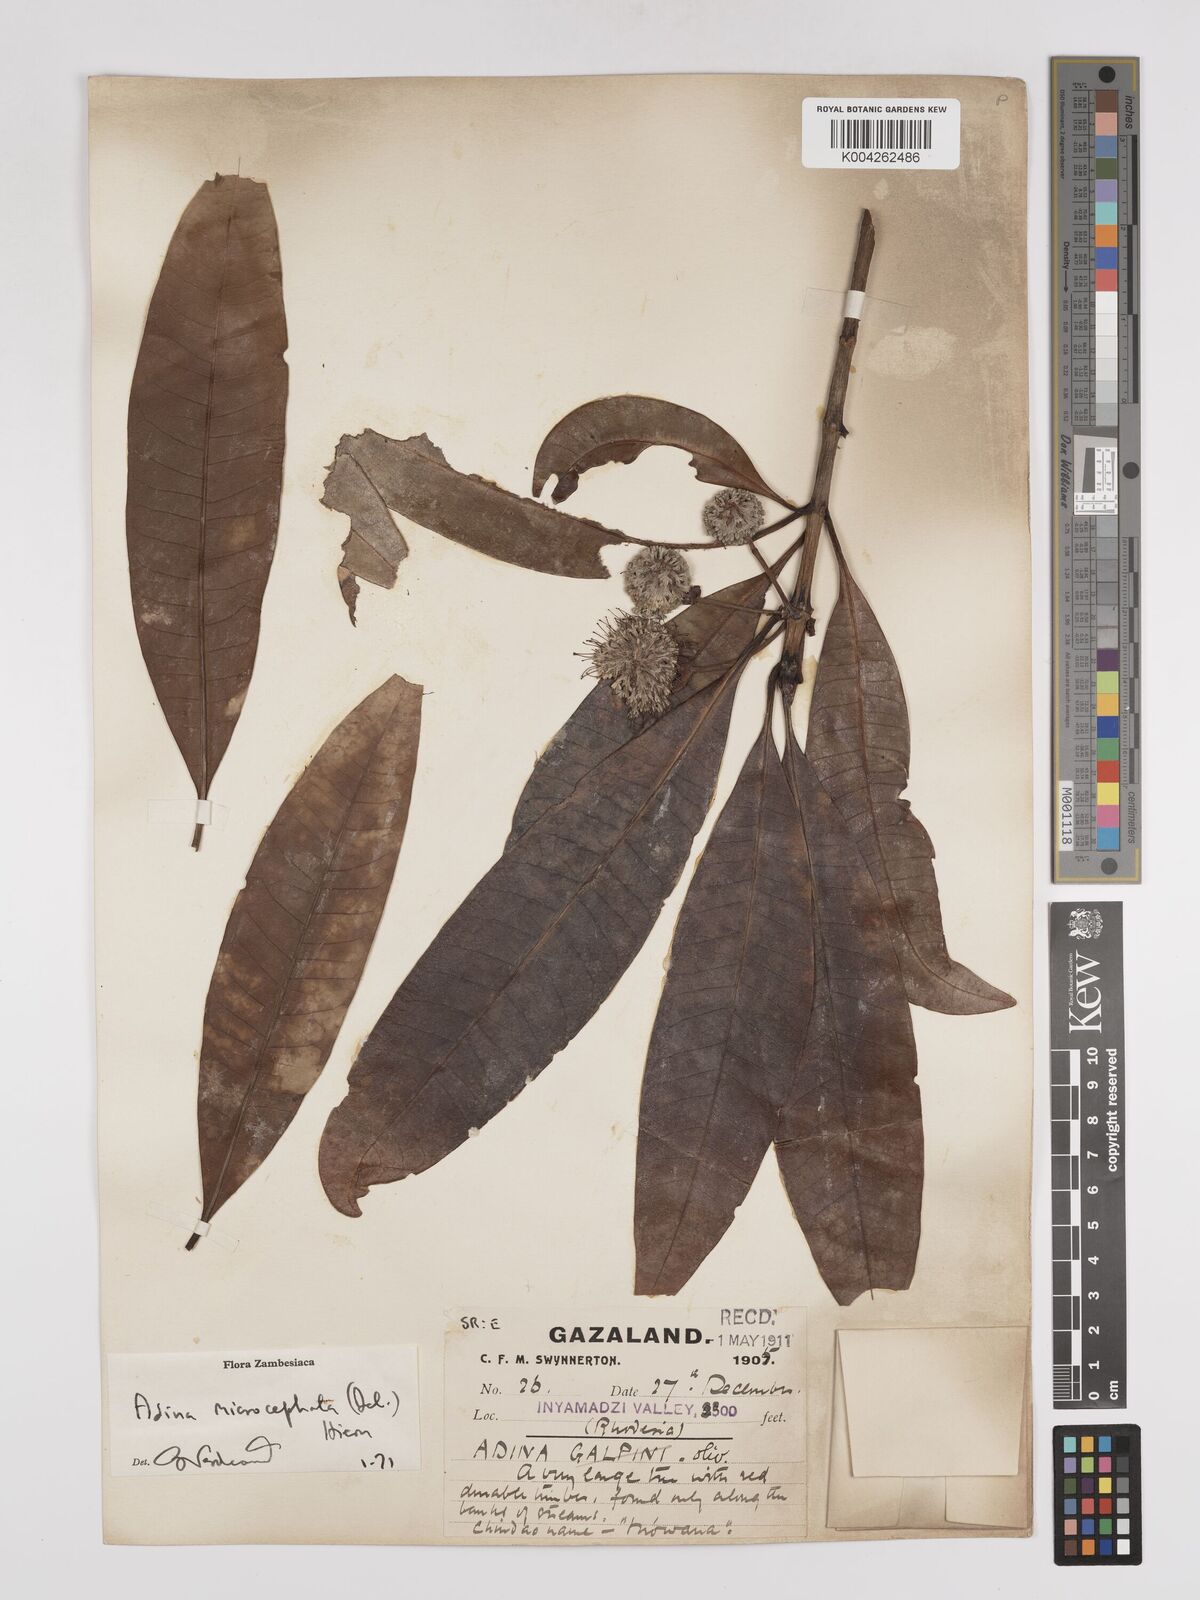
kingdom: Plantae
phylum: Tracheophyta
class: Magnoliopsida
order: Gentianales
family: Rubiaceae
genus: Breonadia
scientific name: Breonadia salicina
